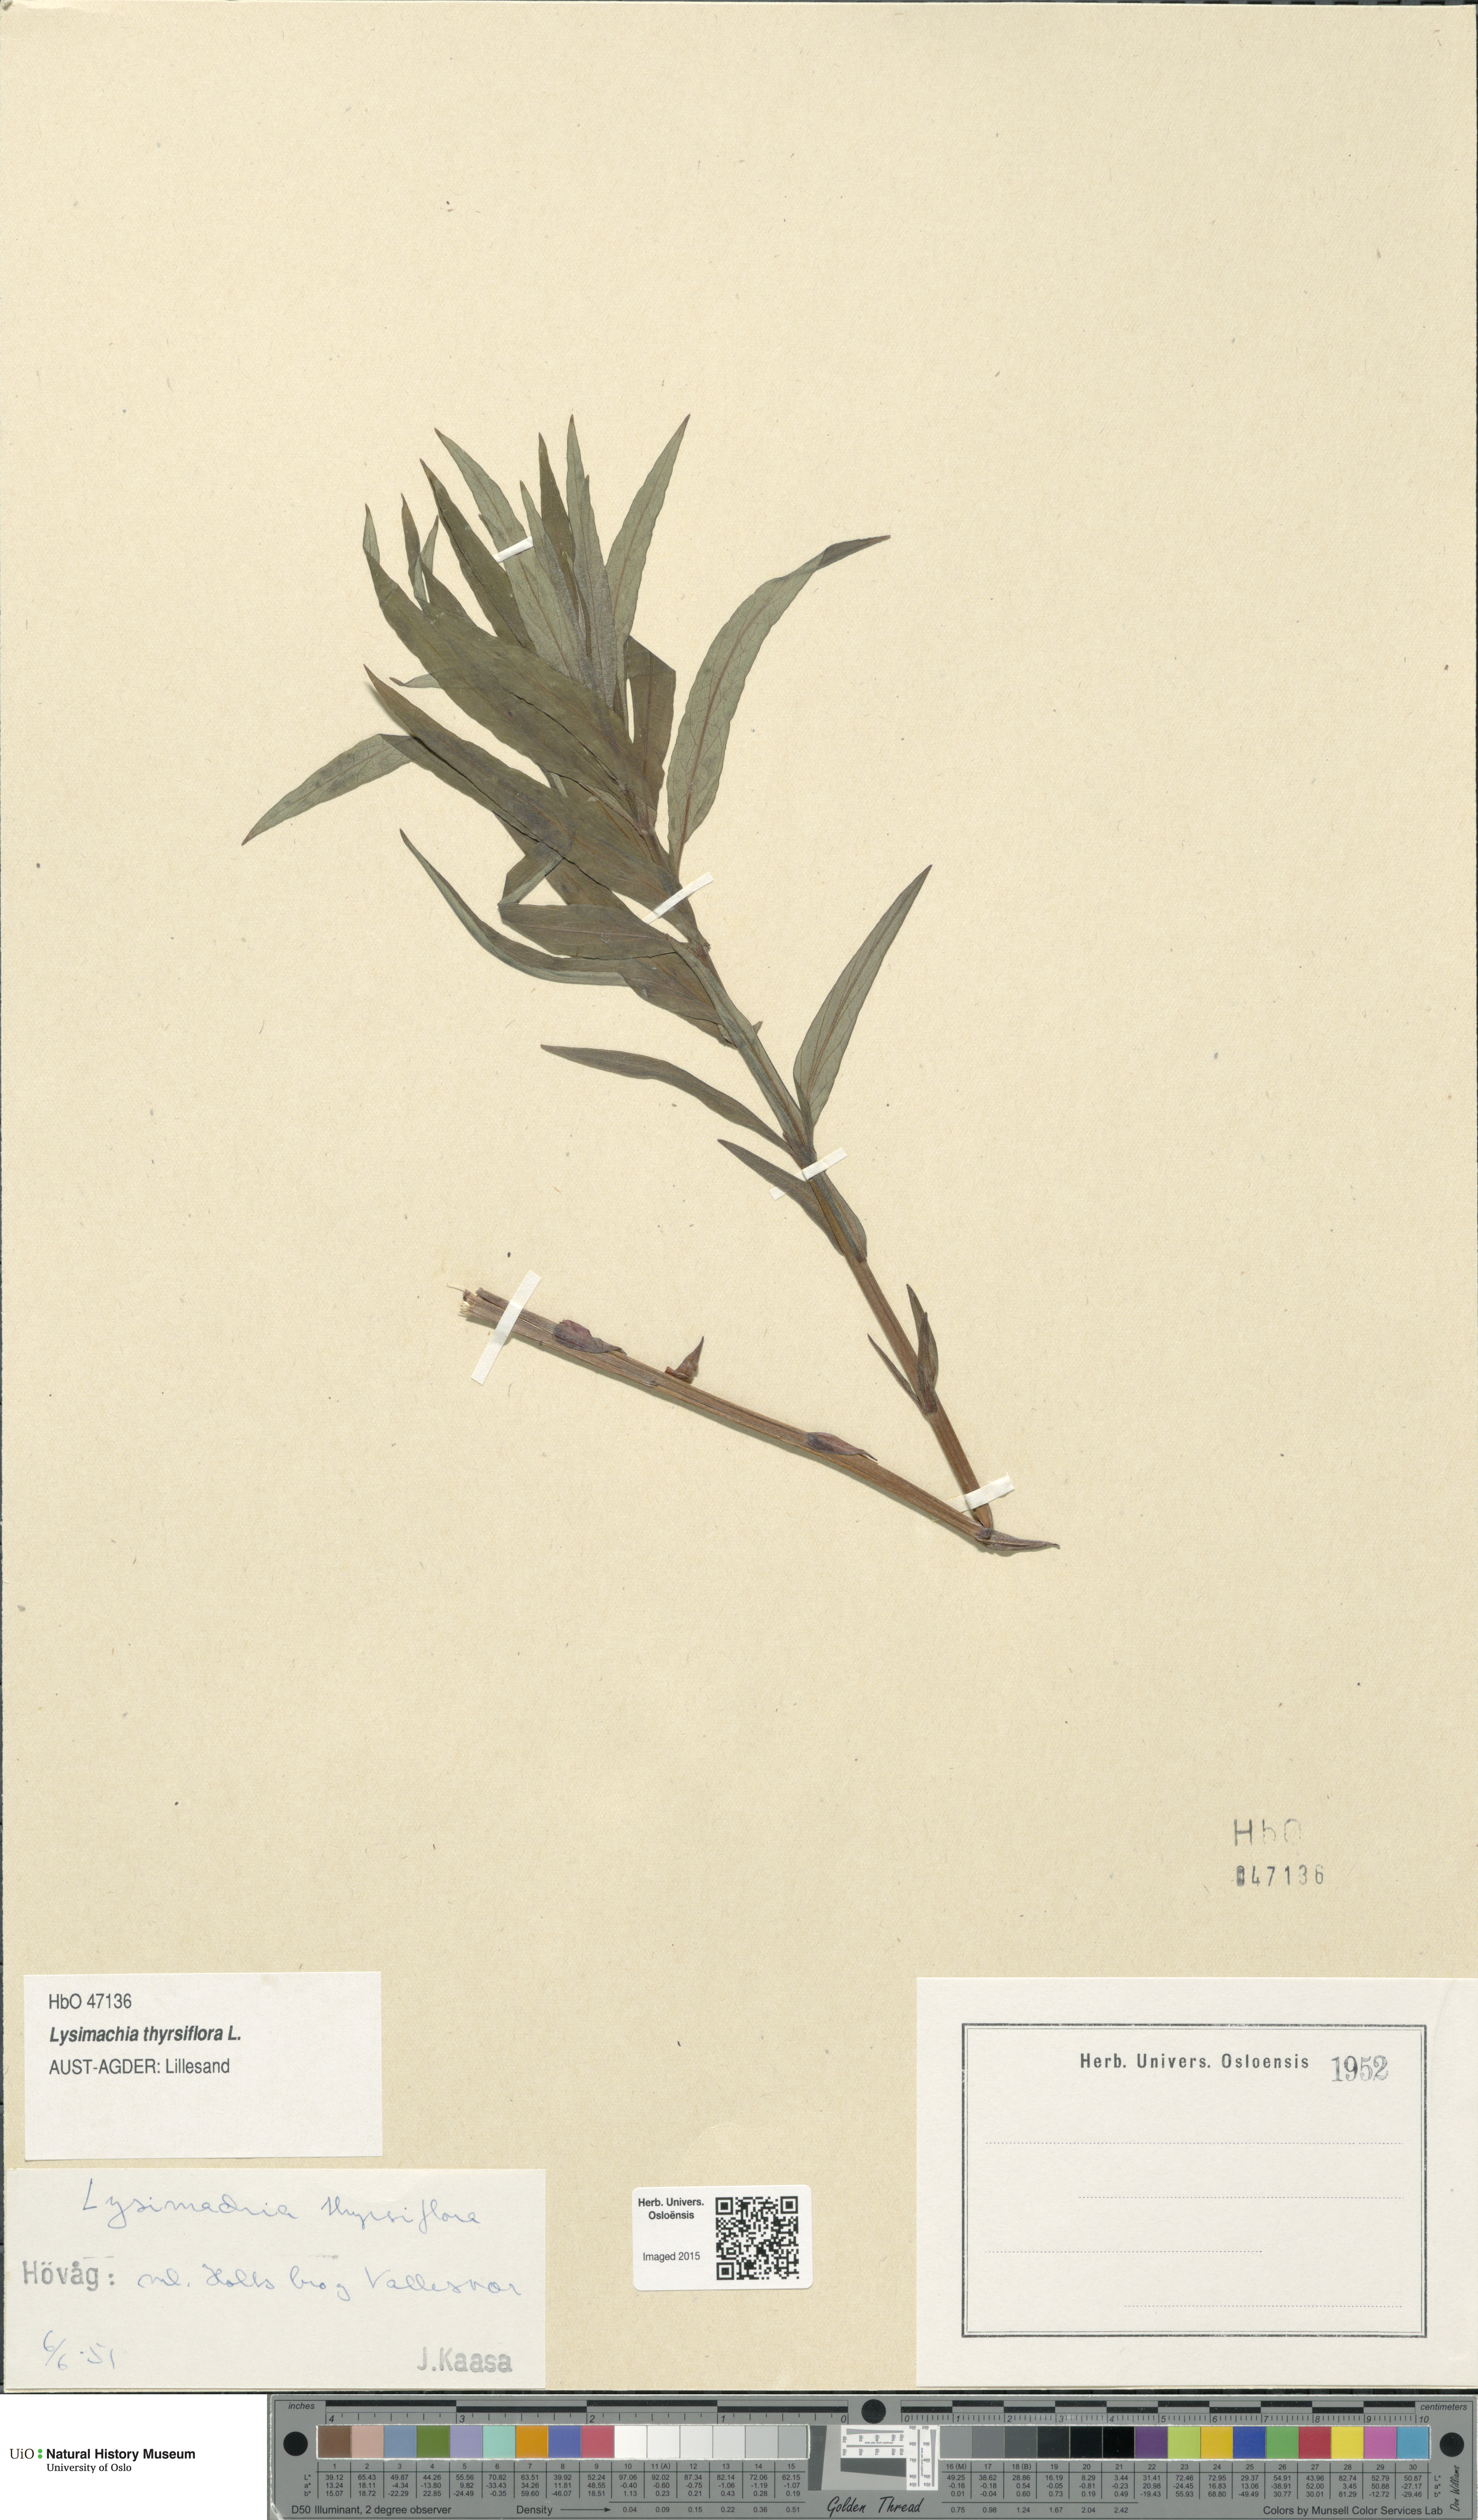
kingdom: Plantae
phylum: Tracheophyta
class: Magnoliopsida
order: Ericales
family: Primulaceae
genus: Lysimachia
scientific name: Lysimachia thyrsiflora
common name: Tufted loosestrife
